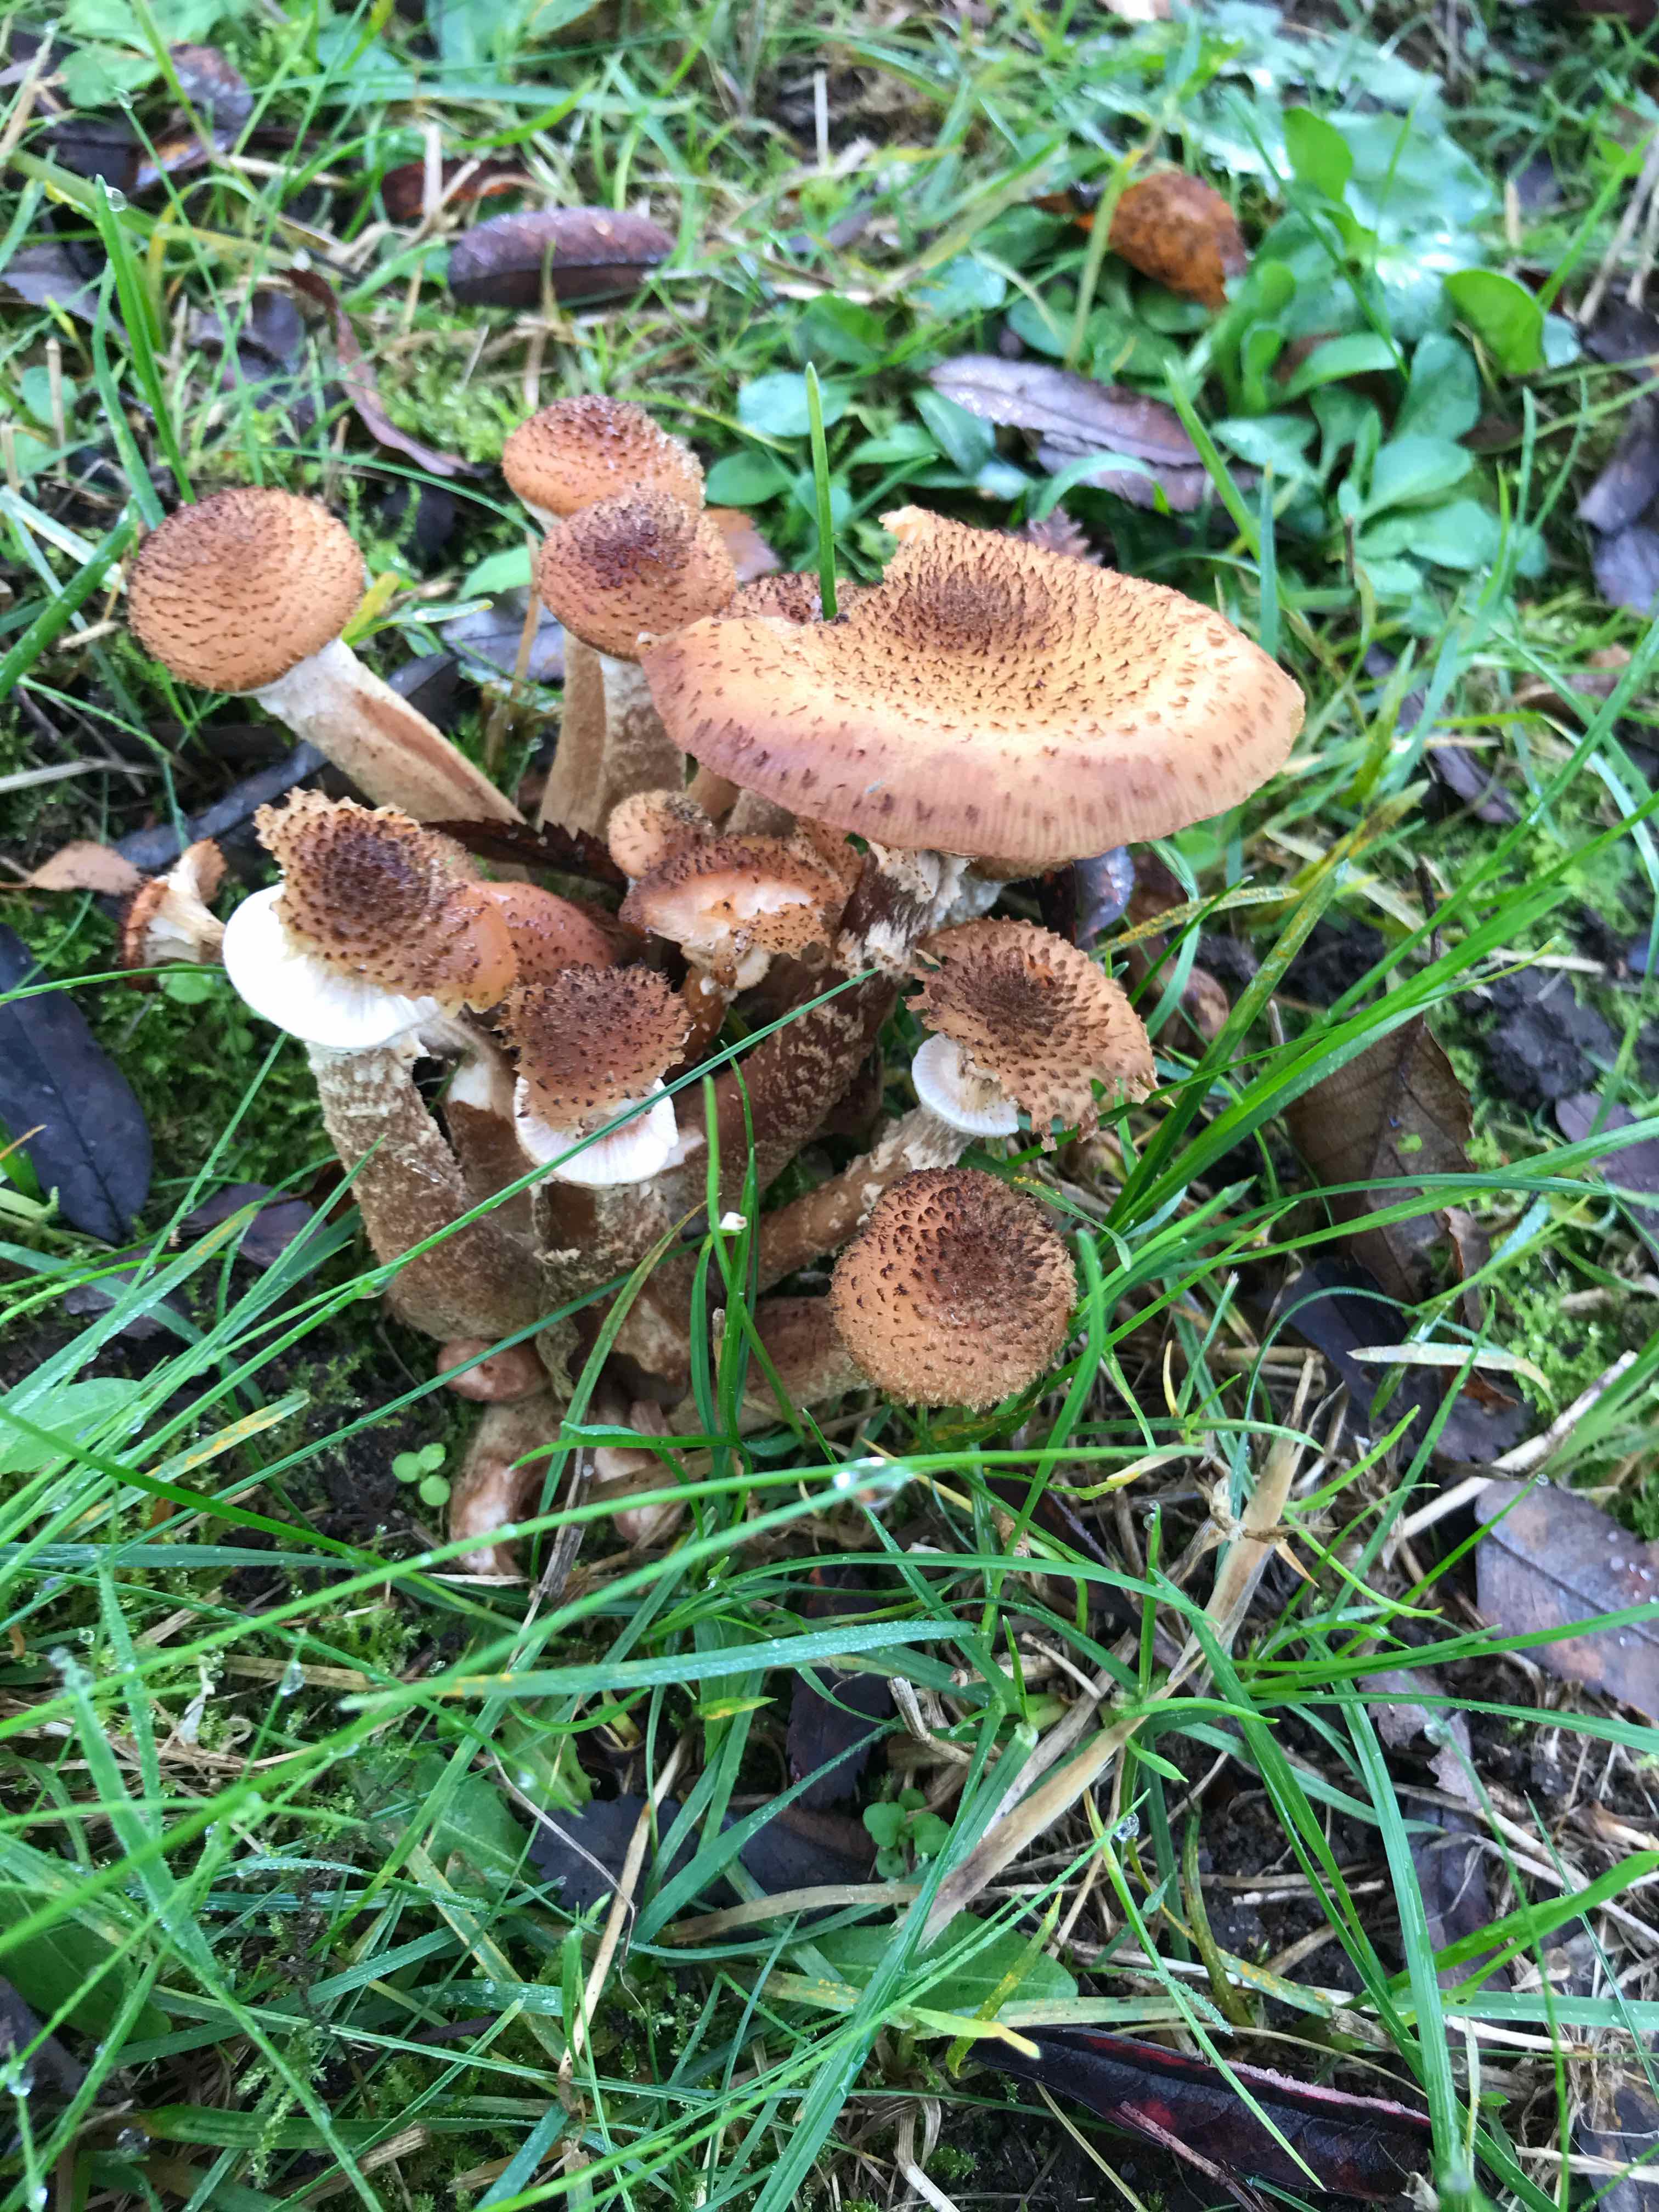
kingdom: Fungi
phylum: Basidiomycota
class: Agaricomycetes
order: Agaricales
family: Physalacriaceae
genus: Armillaria
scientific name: Armillaria ostoyae
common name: mørk honningsvamp
